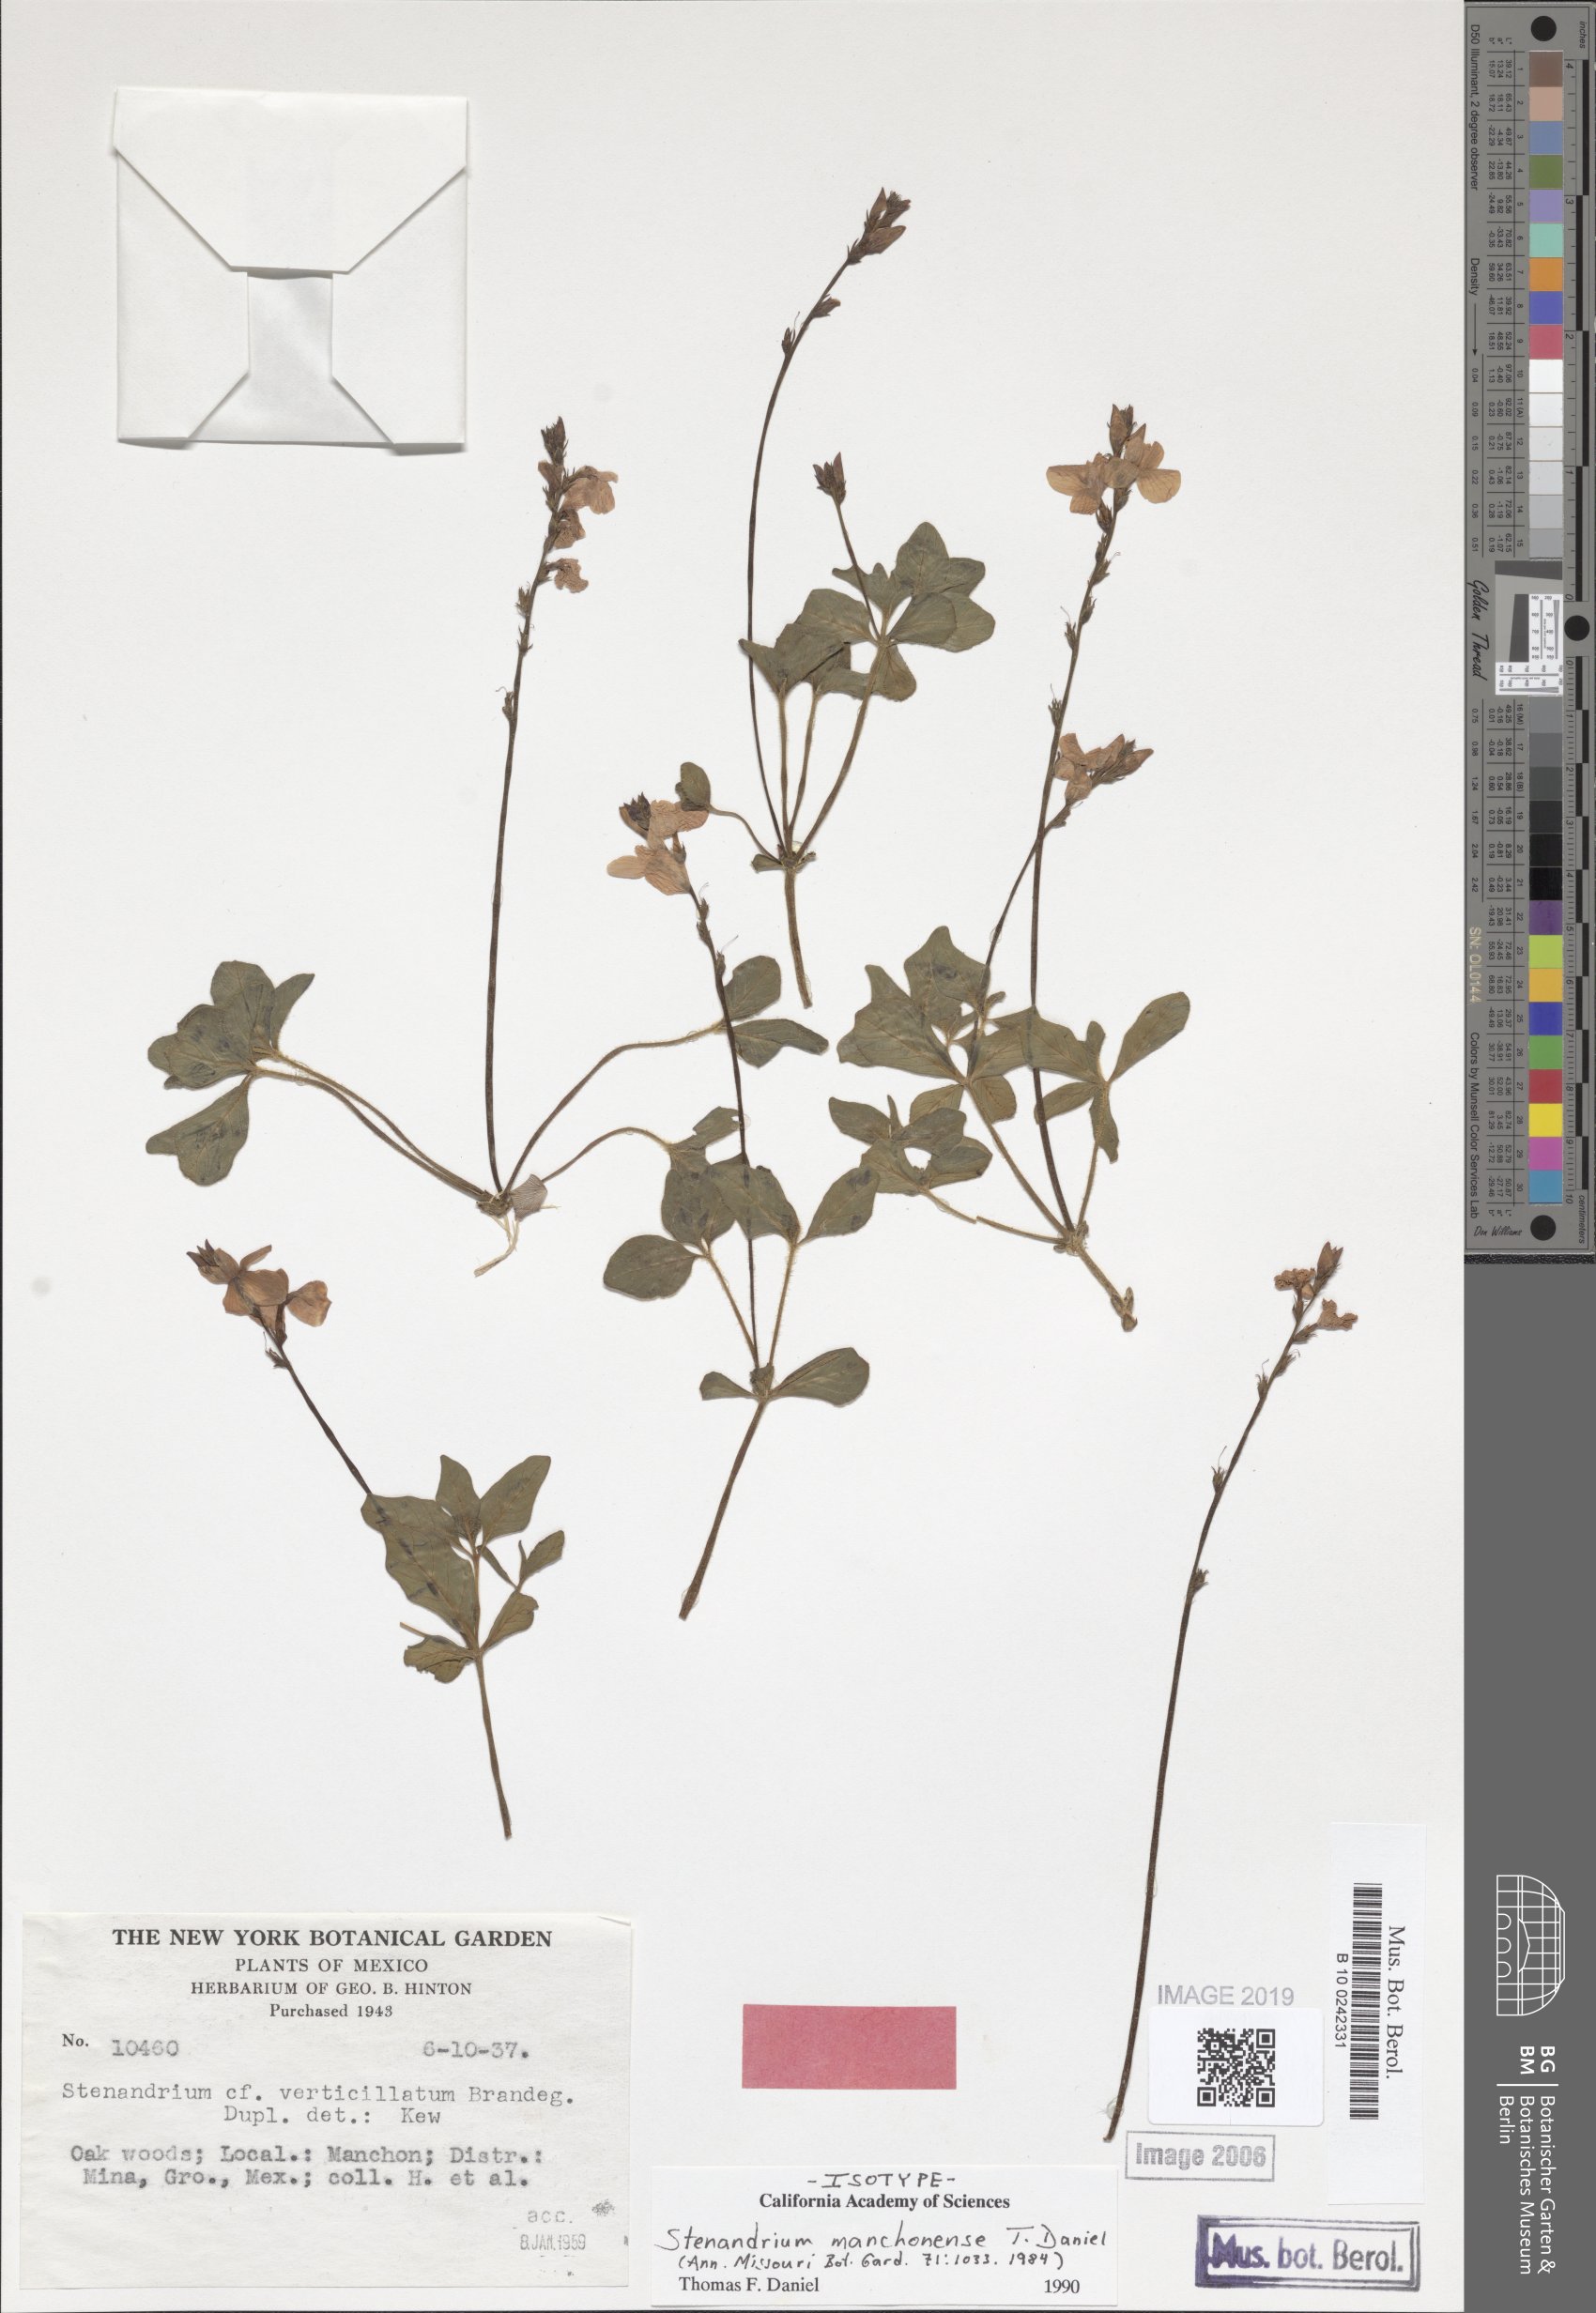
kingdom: Plantae
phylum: Tracheophyta
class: Magnoliopsida
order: Lamiales
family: Acanthaceae
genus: Stenandrium
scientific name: Stenandrium manchonense
